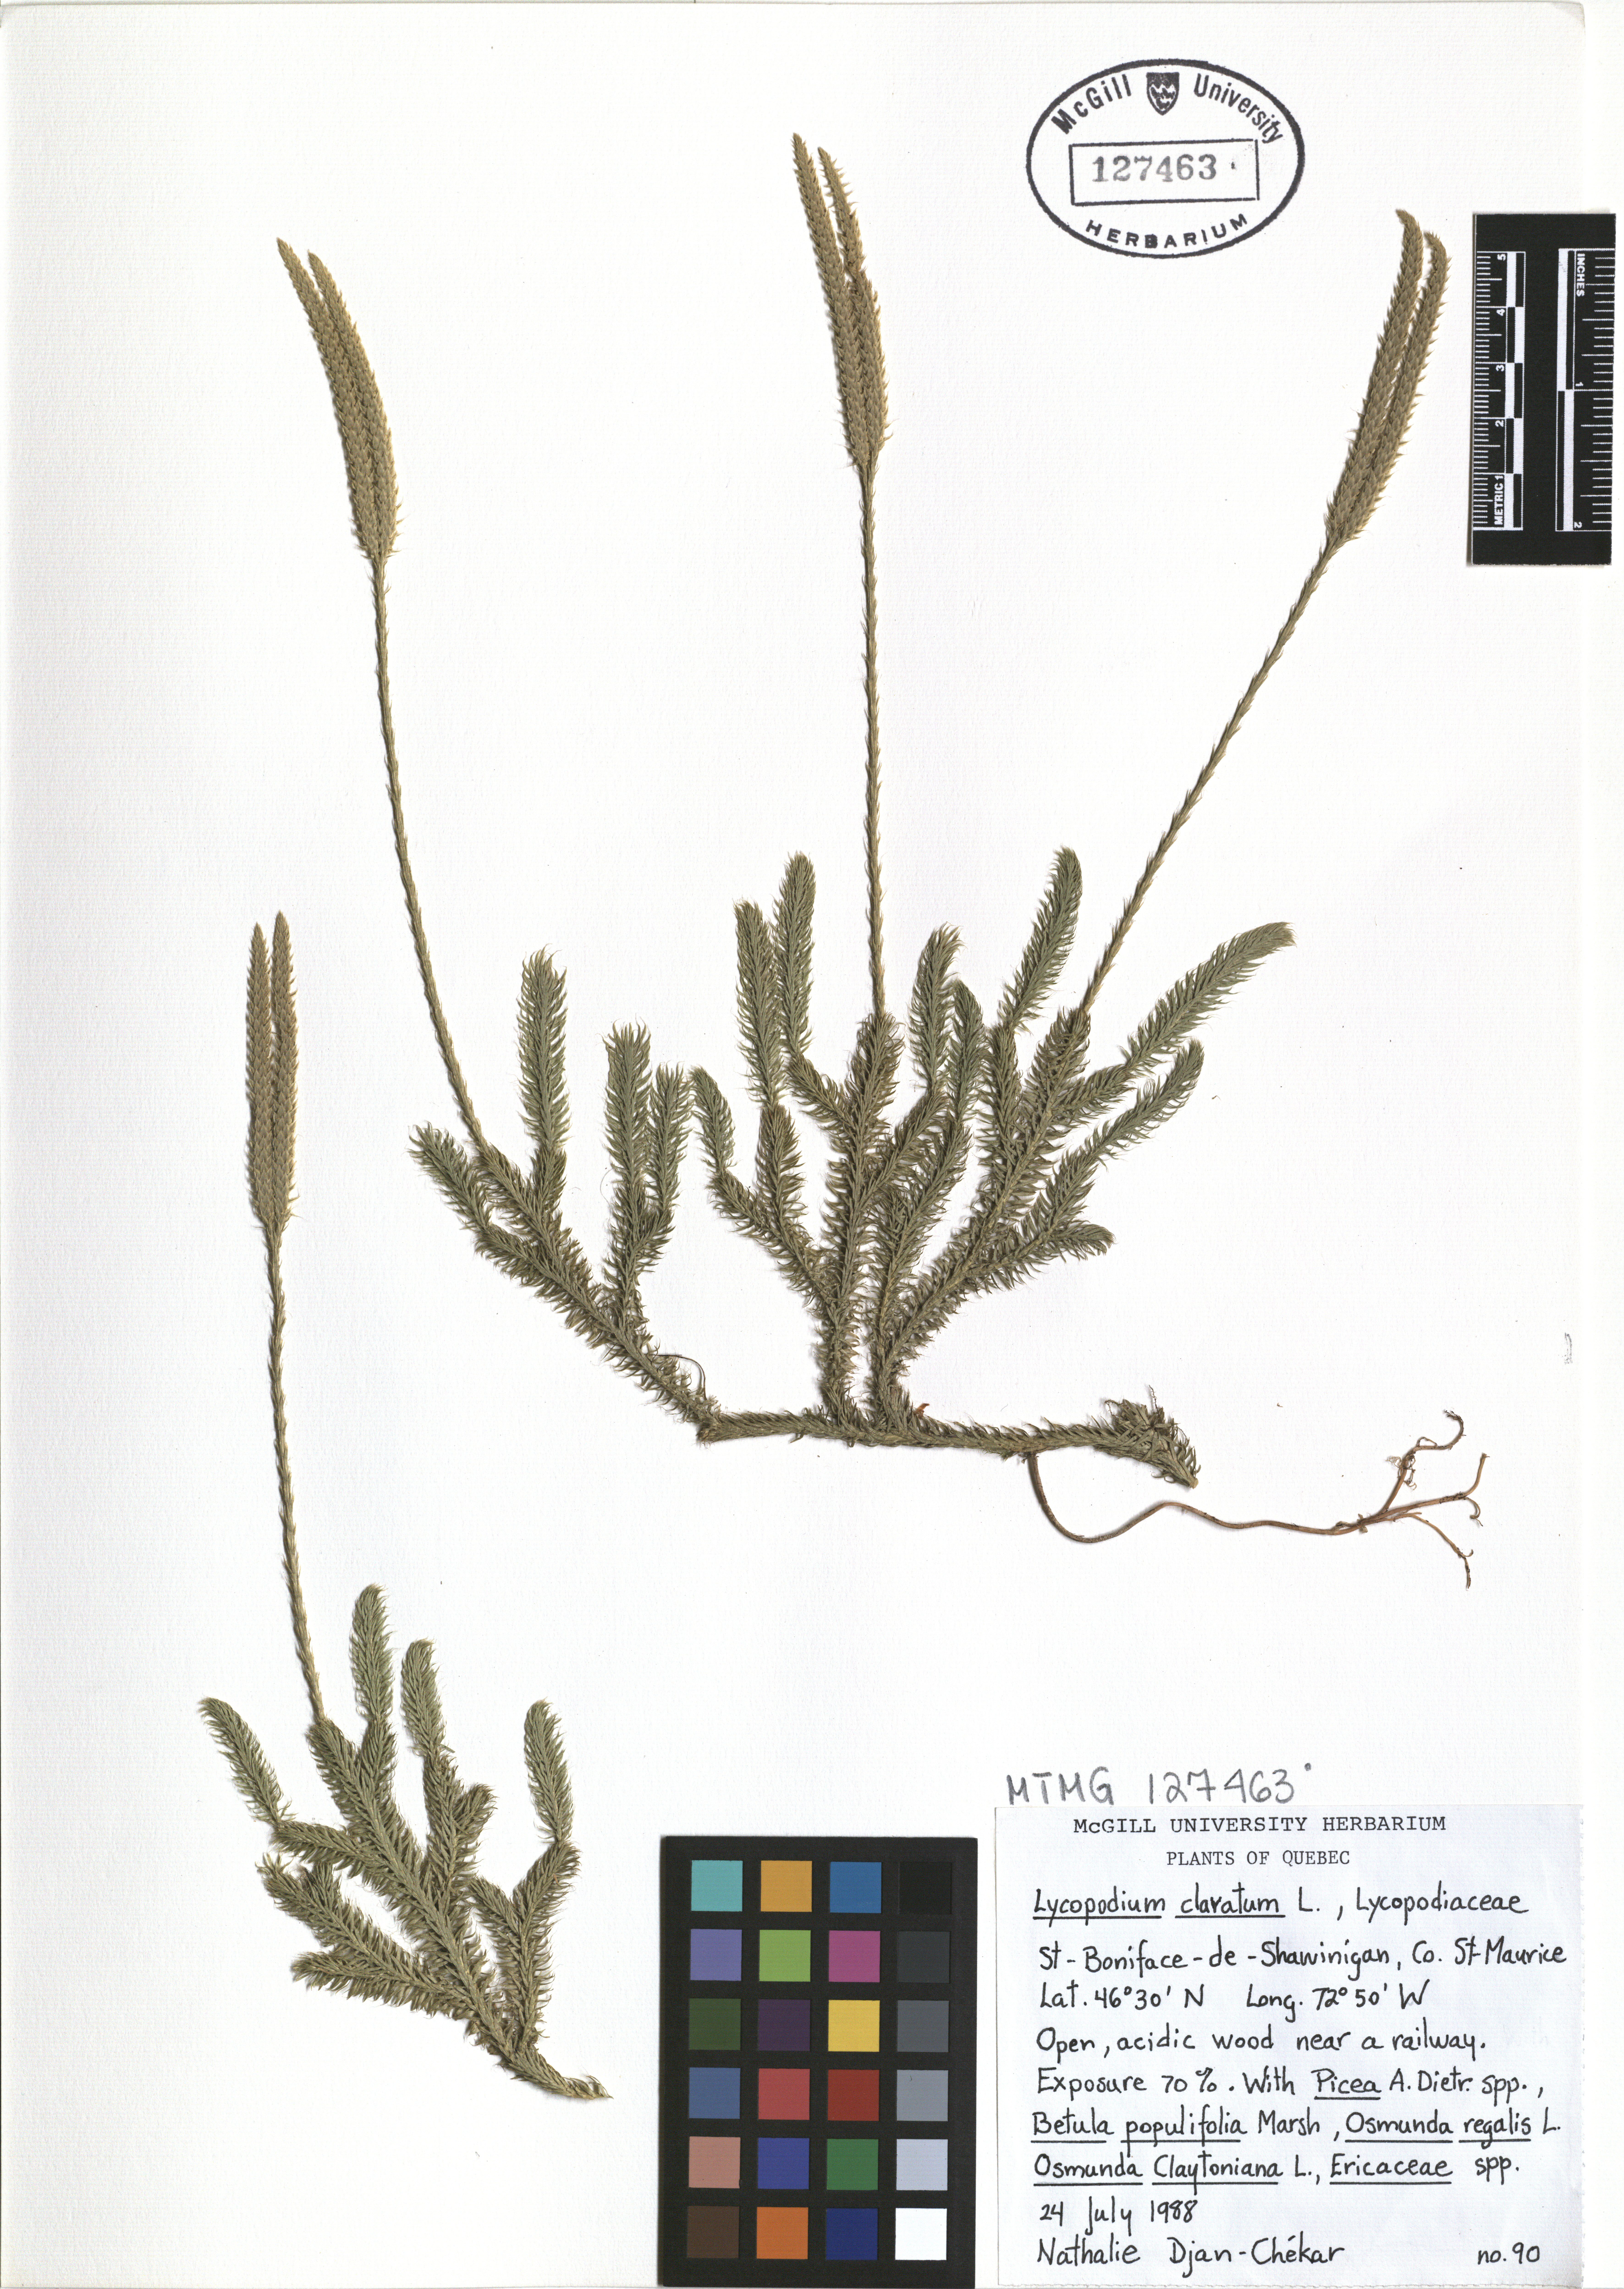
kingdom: Plantae
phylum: Tracheophyta
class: Lycopodiopsida
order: Lycopodiales
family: Lycopodiaceae
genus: Lycopodium
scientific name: Lycopodium clavatum
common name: Stag's-horn clubmoss
